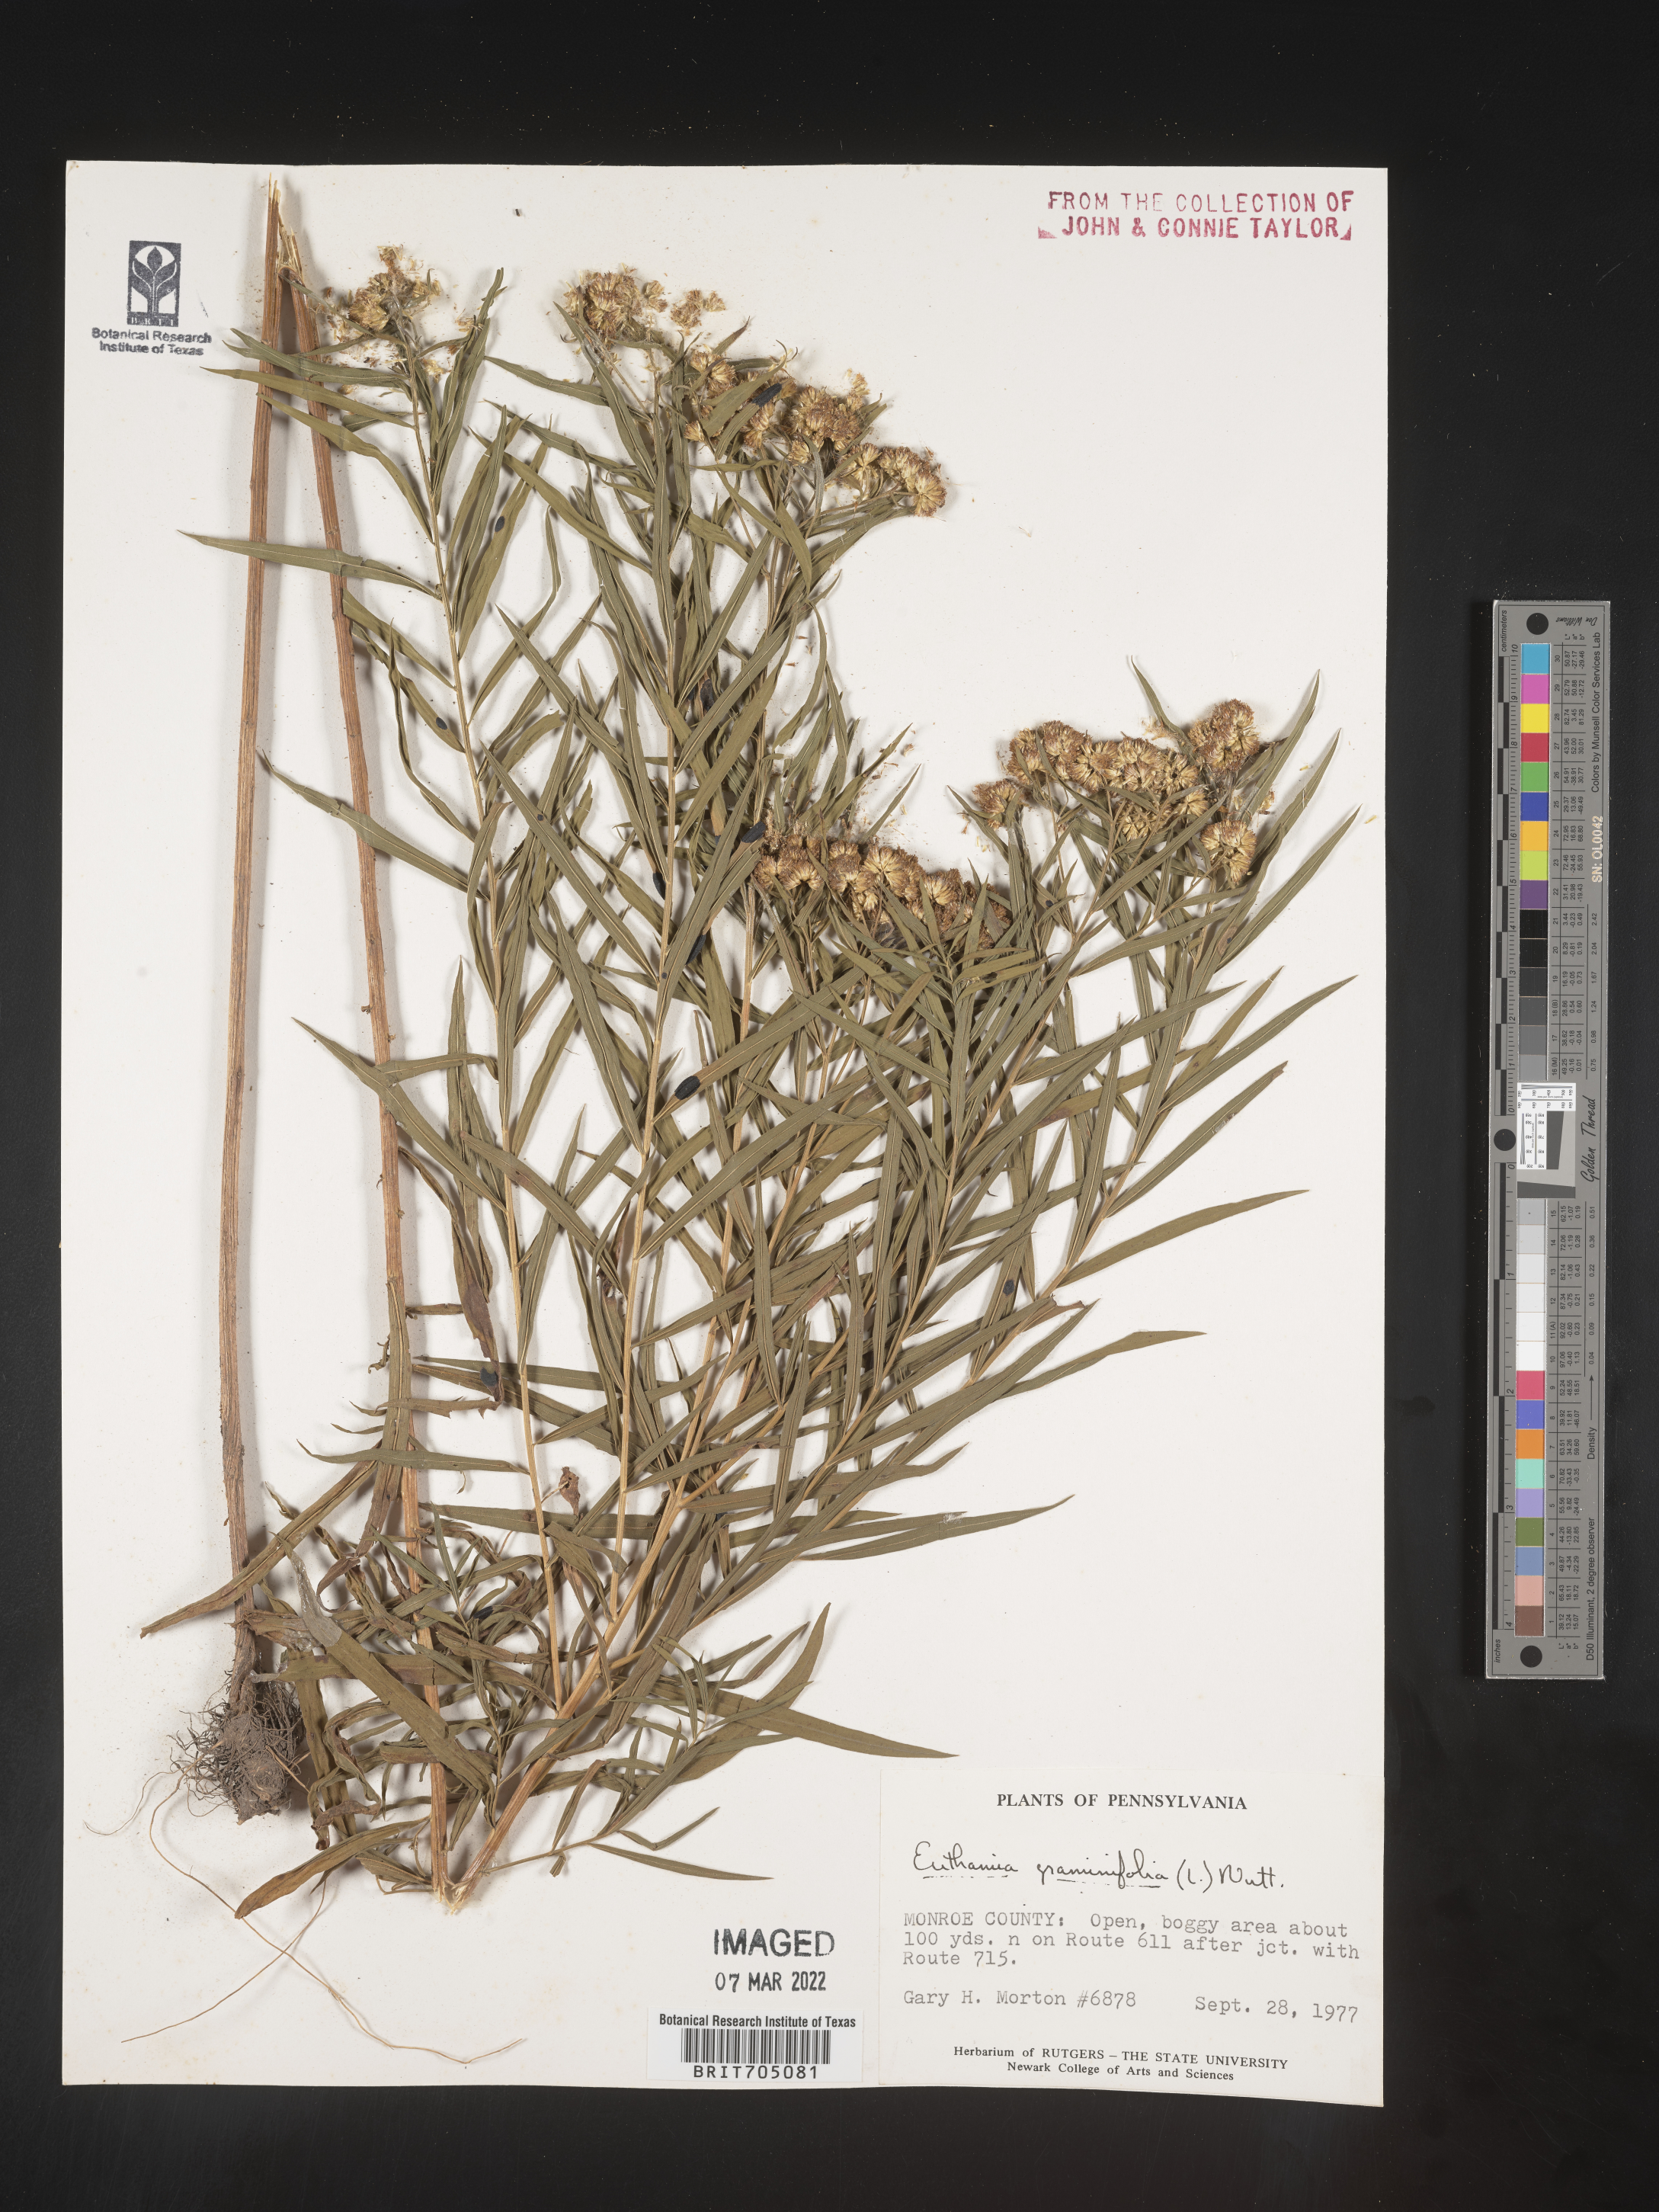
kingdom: Plantae
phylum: Tracheophyta
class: Magnoliopsida
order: Asterales
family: Asteraceae
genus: Euthamia
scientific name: Euthamia graminifolia
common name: Common goldentop
